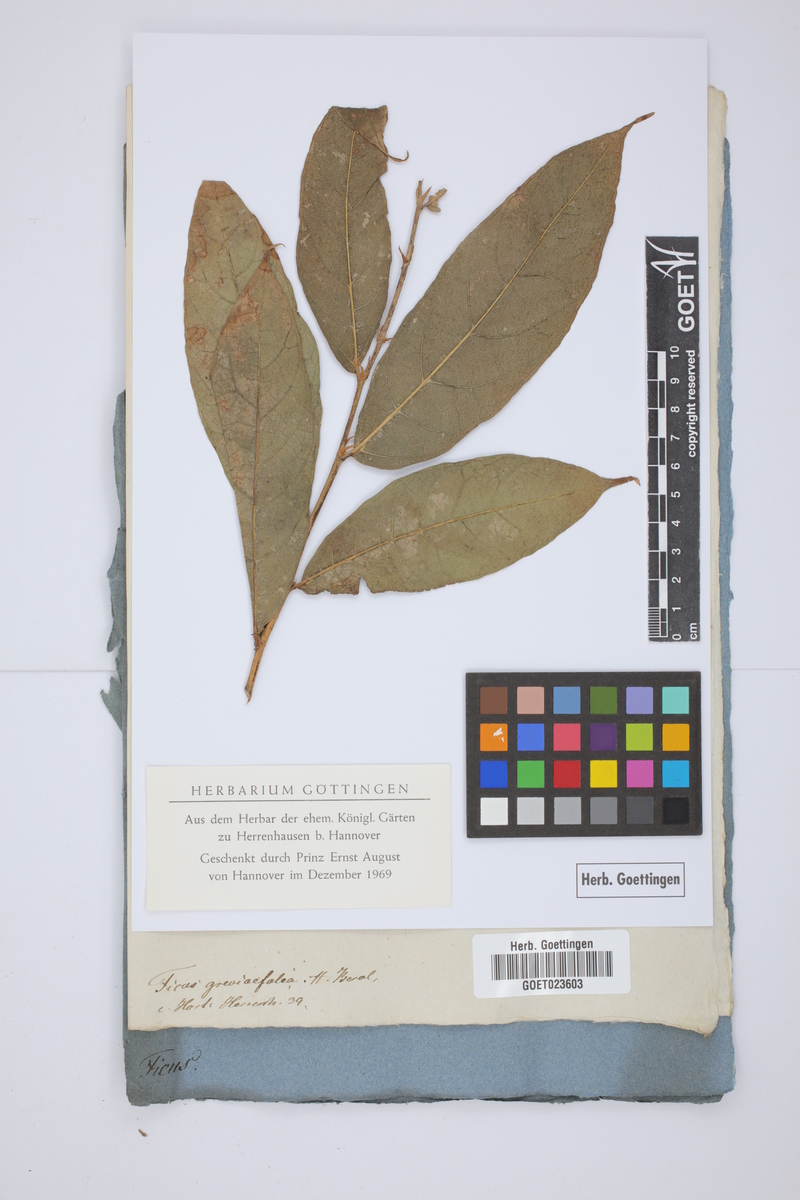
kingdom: Plantae
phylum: Tracheophyta
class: Magnoliopsida
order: Rosales
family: Moraceae
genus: Ficus
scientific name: Ficus asperiuscula
